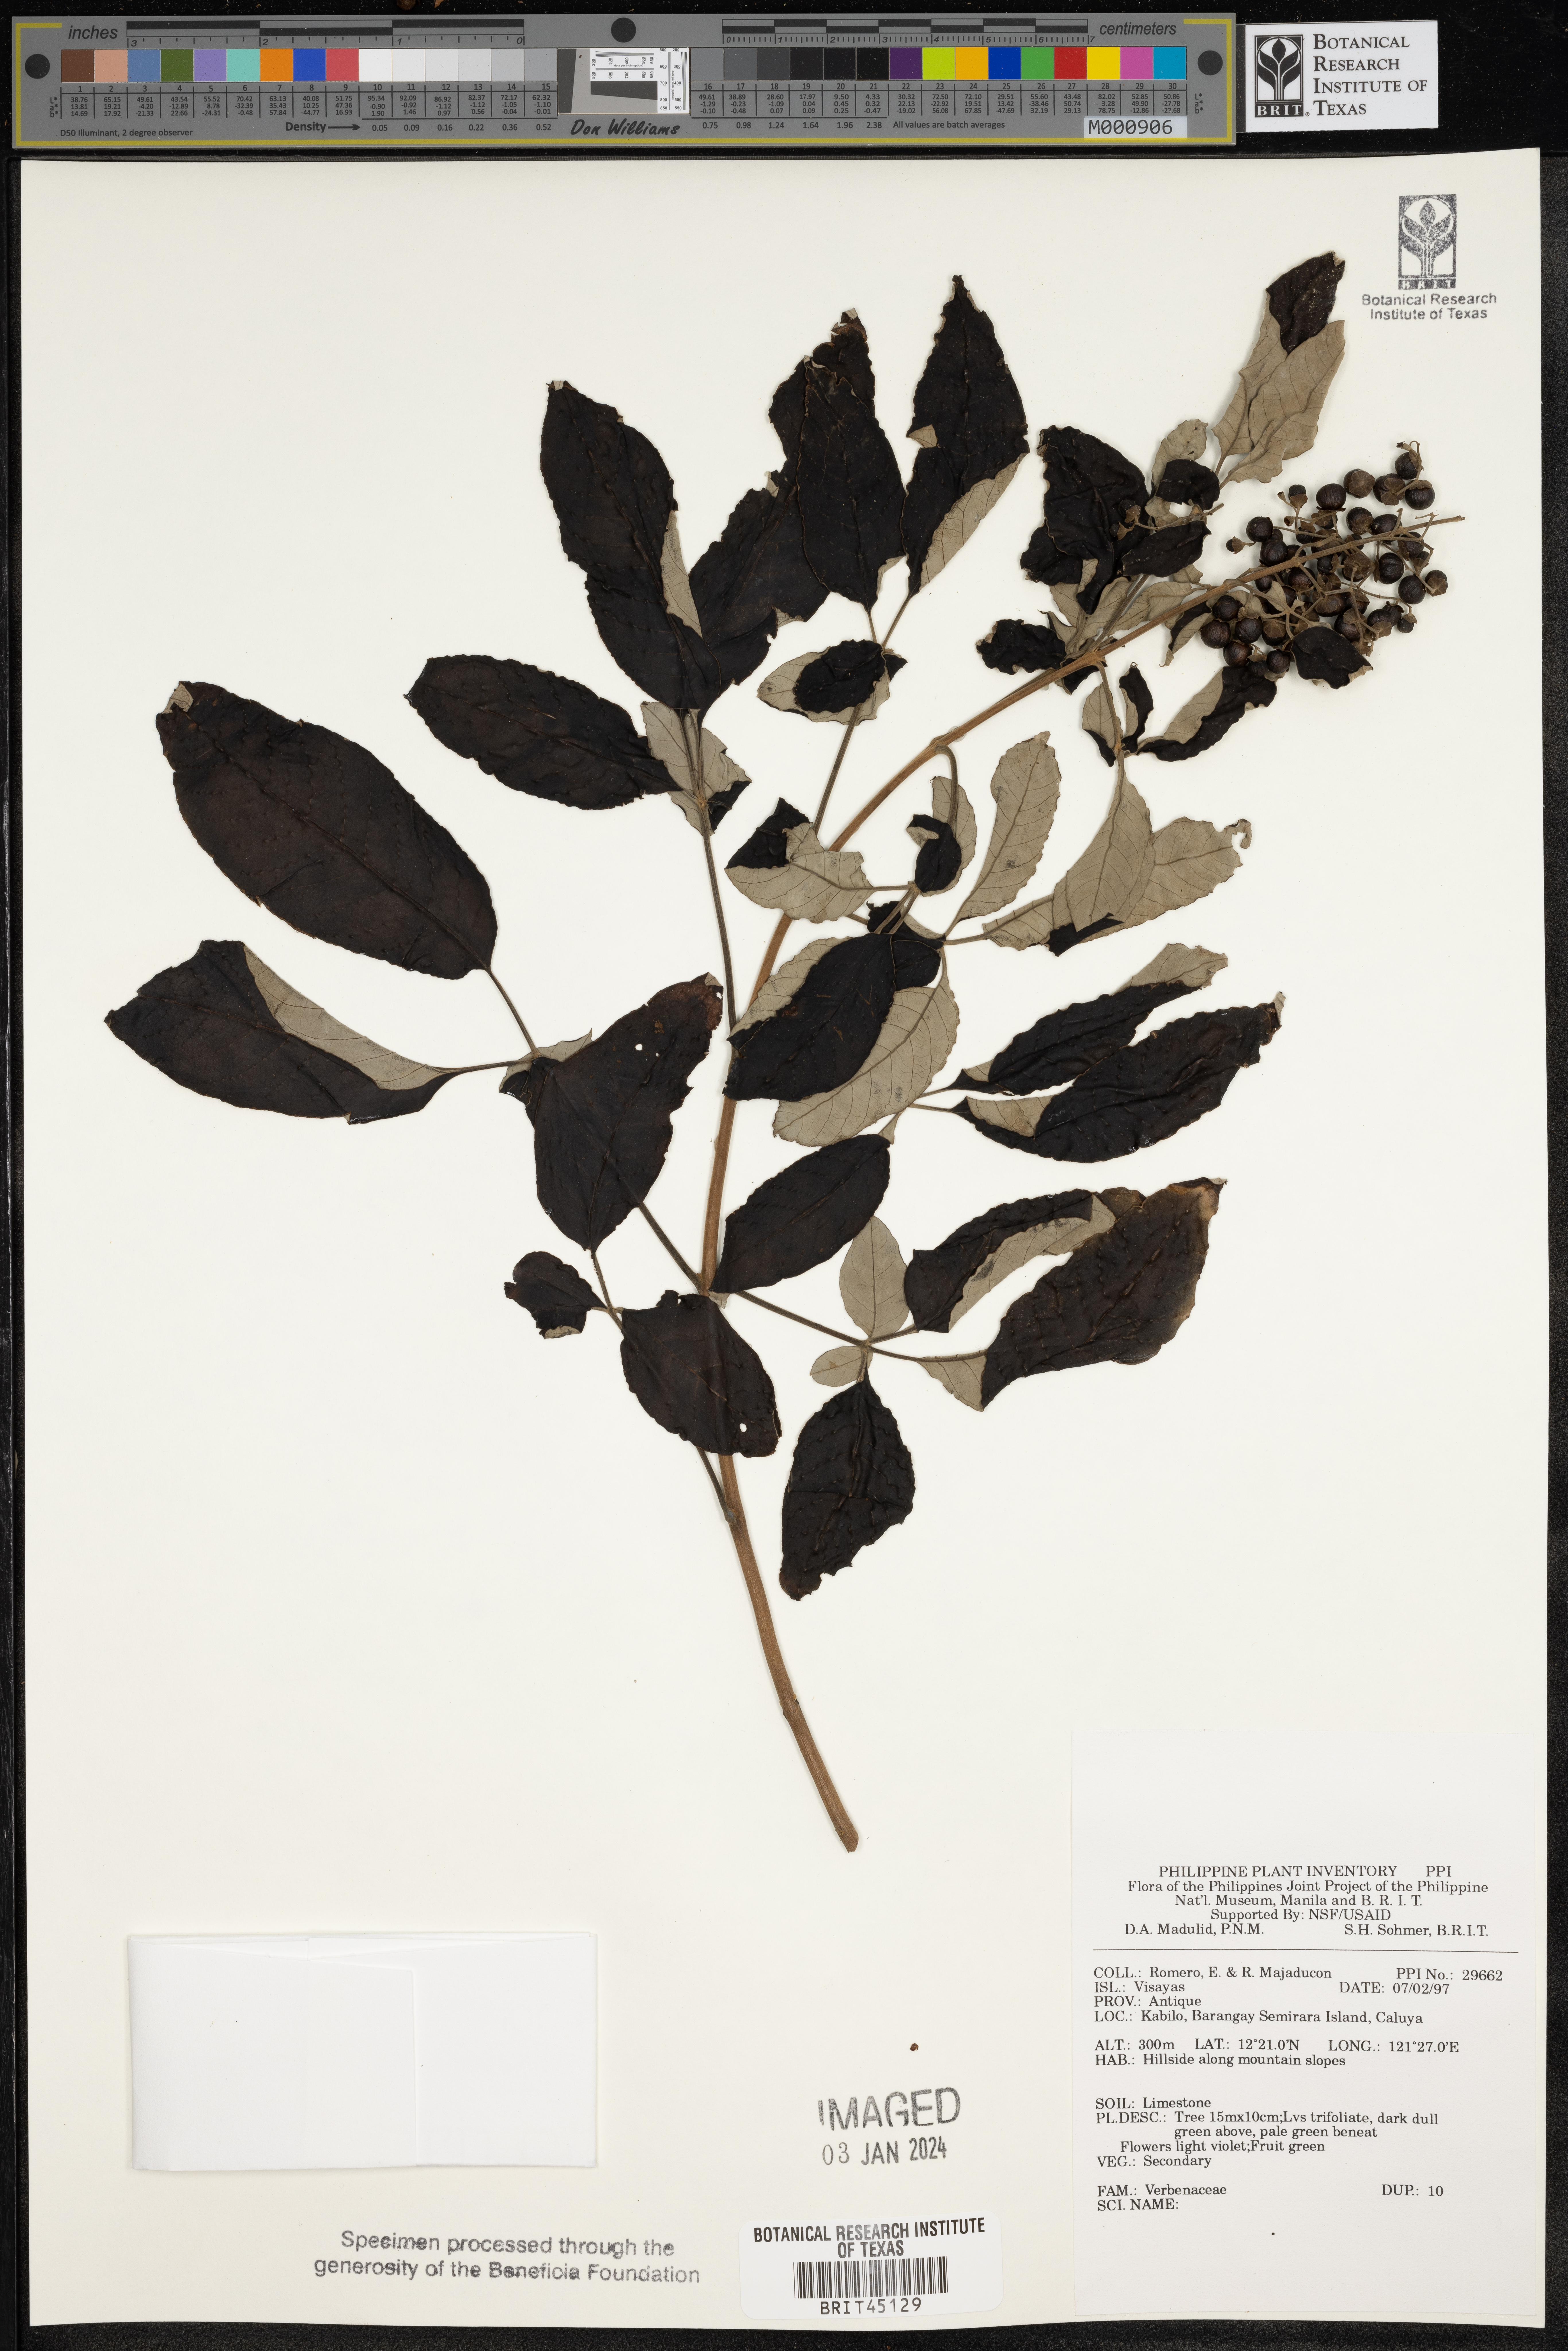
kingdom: Plantae
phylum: Tracheophyta
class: Magnoliopsida
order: Lamiales
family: Verbenaceae
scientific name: Verbenaceae
